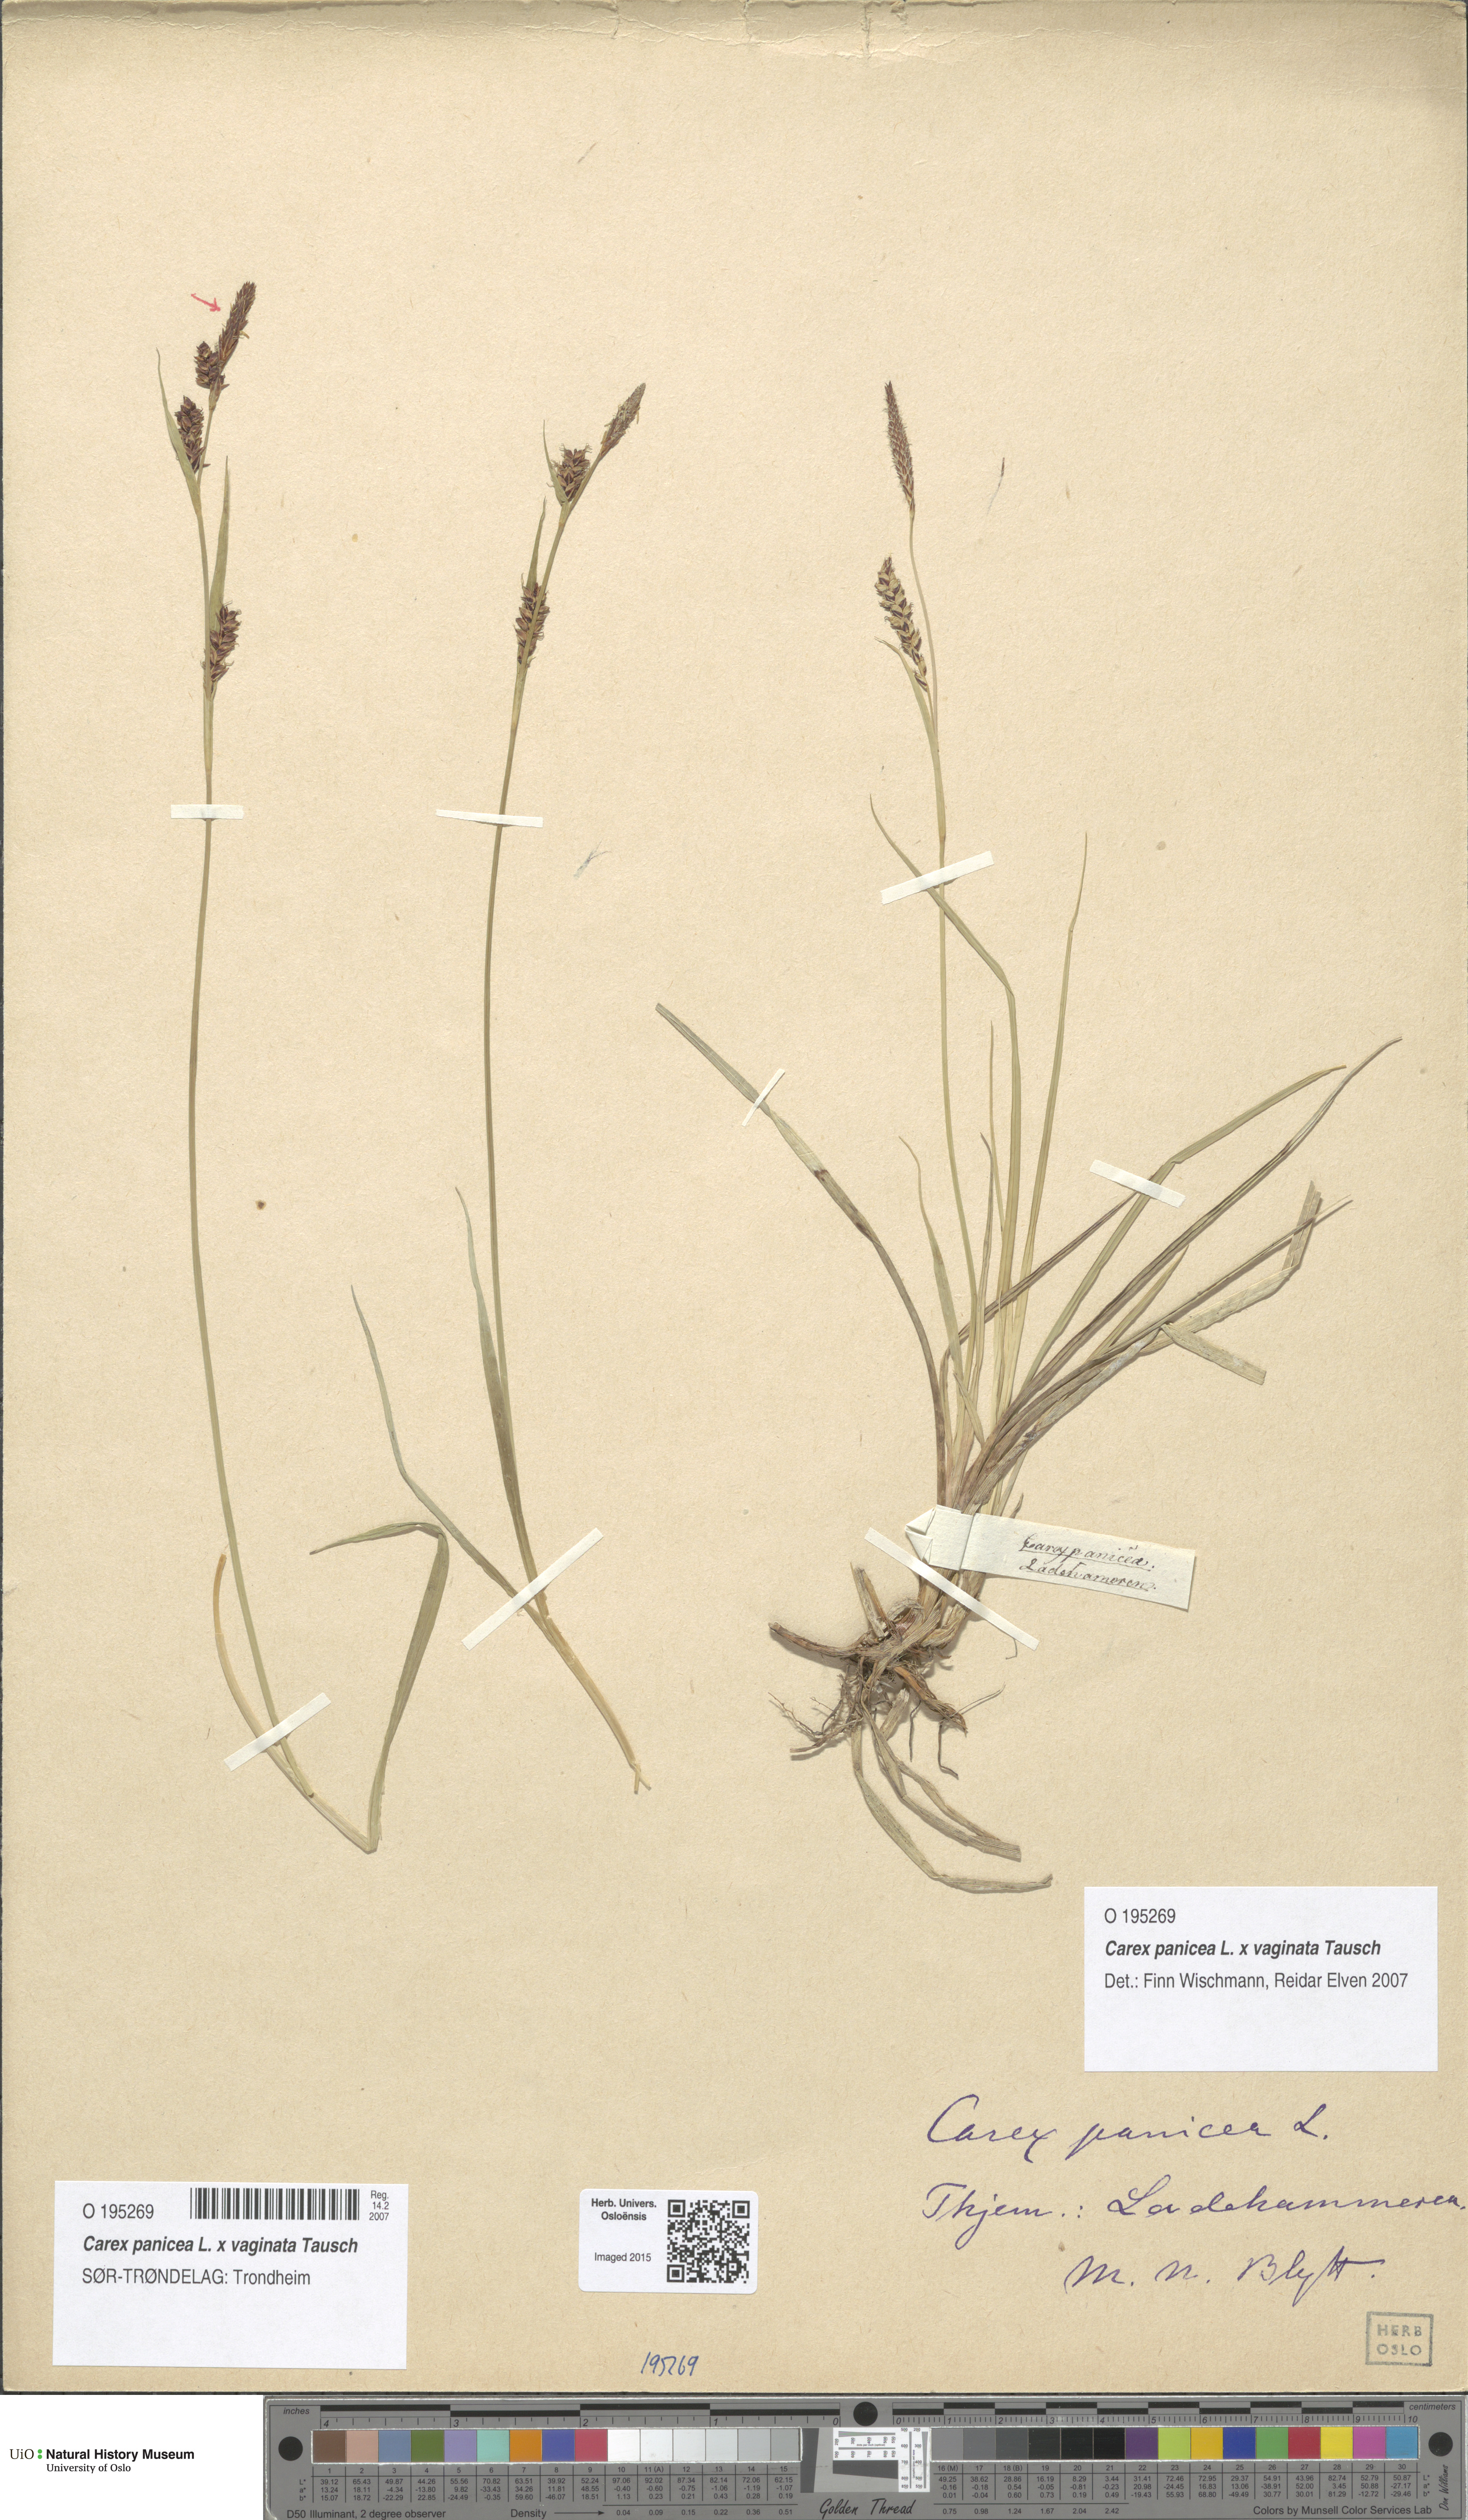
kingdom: Plantae
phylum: Tracheophyta
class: Liliopsida
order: Poales
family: Cyperaceae
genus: Carex
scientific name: Carex
